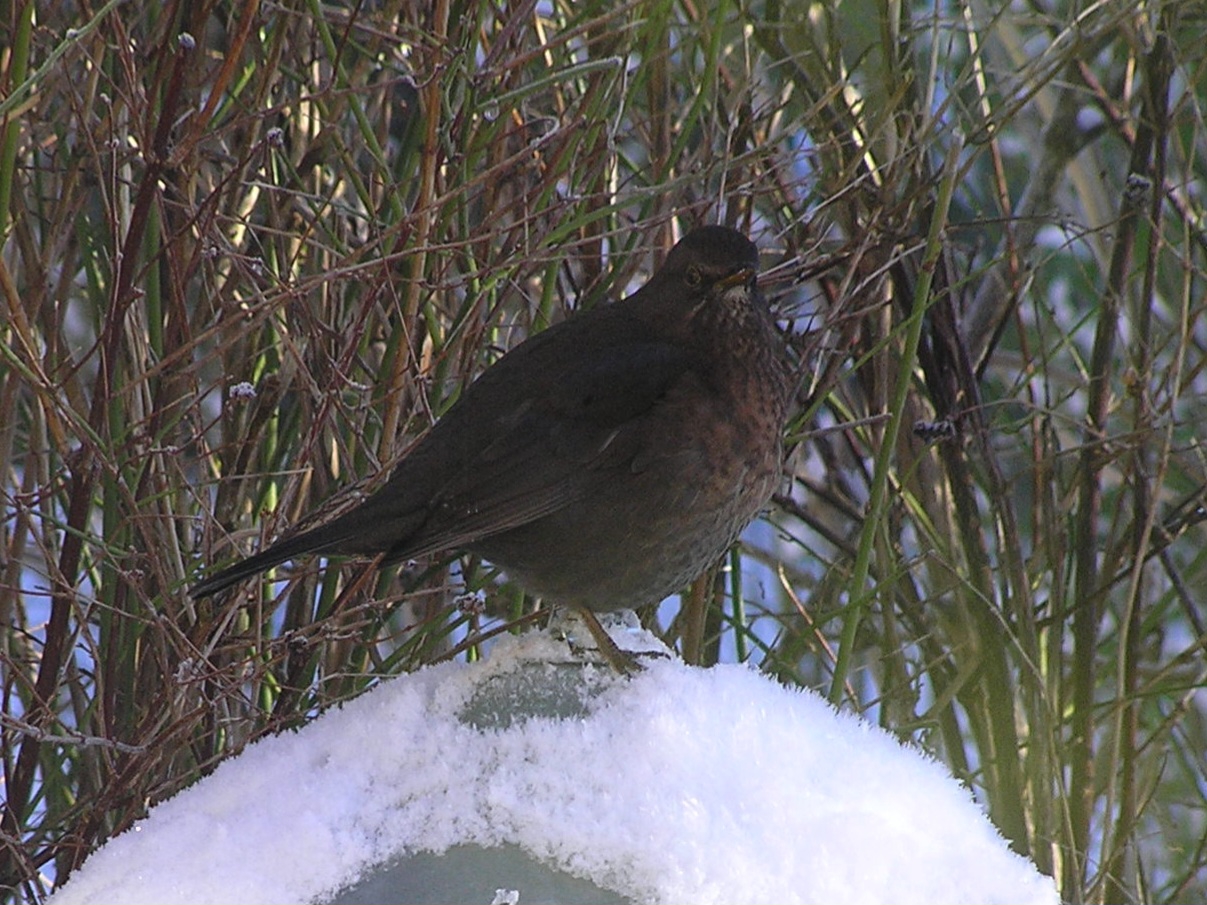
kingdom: Animalia
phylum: Chordata
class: Aves
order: Passeriformes
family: Turdidae
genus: Turdus
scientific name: Turdus merula
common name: Solsort
